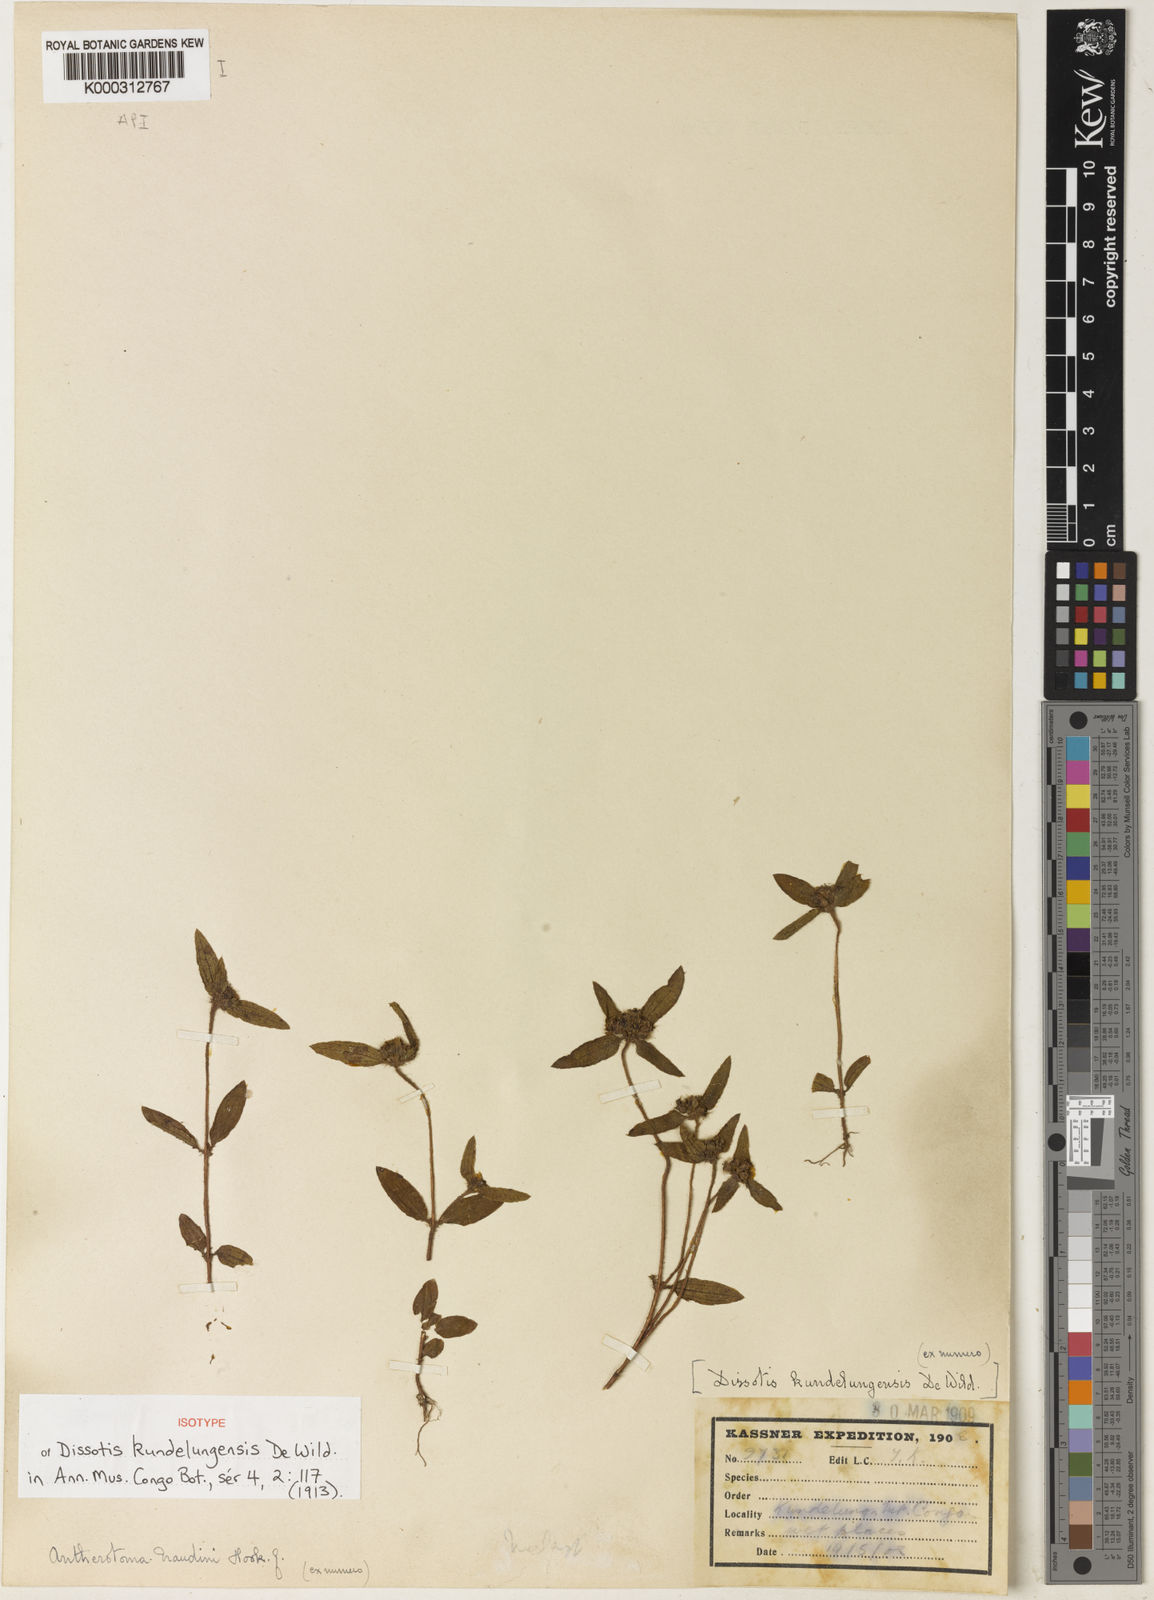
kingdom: Plantae
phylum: Tracheophyta
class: Magnoliopsida
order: Myrtales
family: Melastomataceae
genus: Antherotoma
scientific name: Antherotoma naudinii
